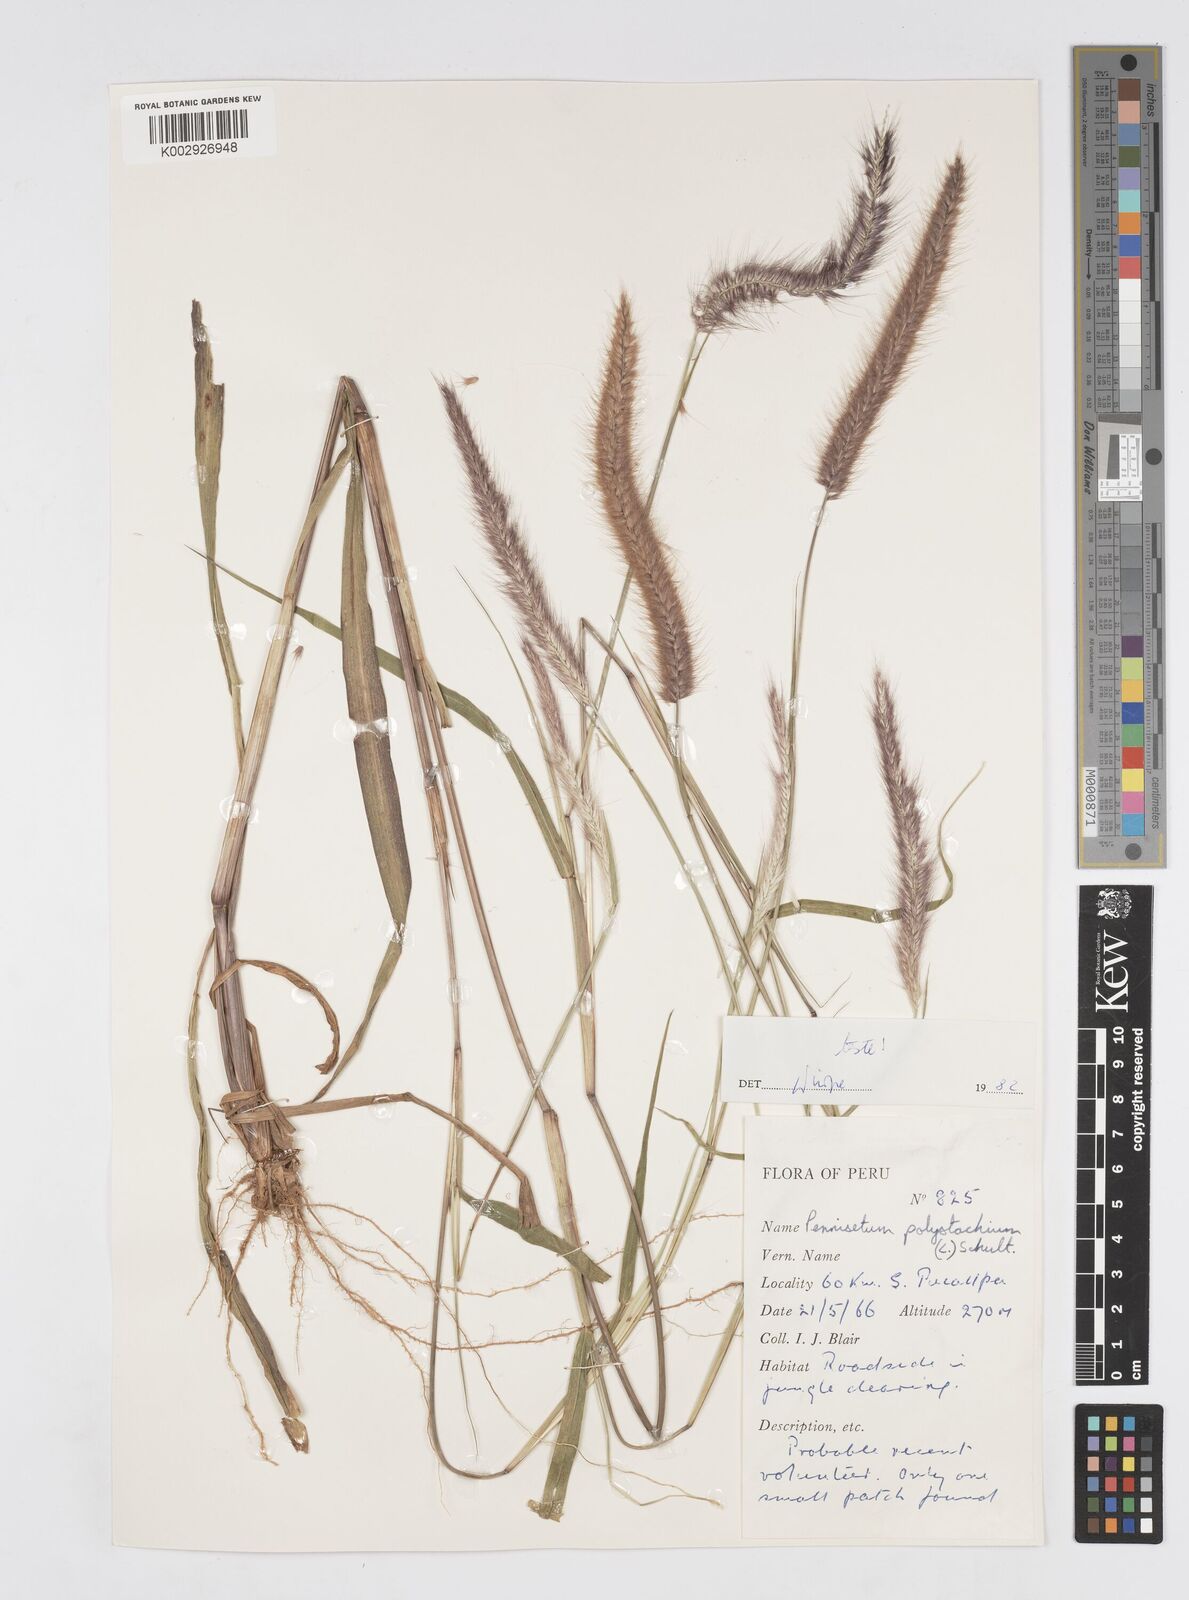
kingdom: Plantae
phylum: Tracheophyta
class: Liliopsida
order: Poales
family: Poaceae
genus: Setaria
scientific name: Setaria parviflora
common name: Knotroot bristle-grass
